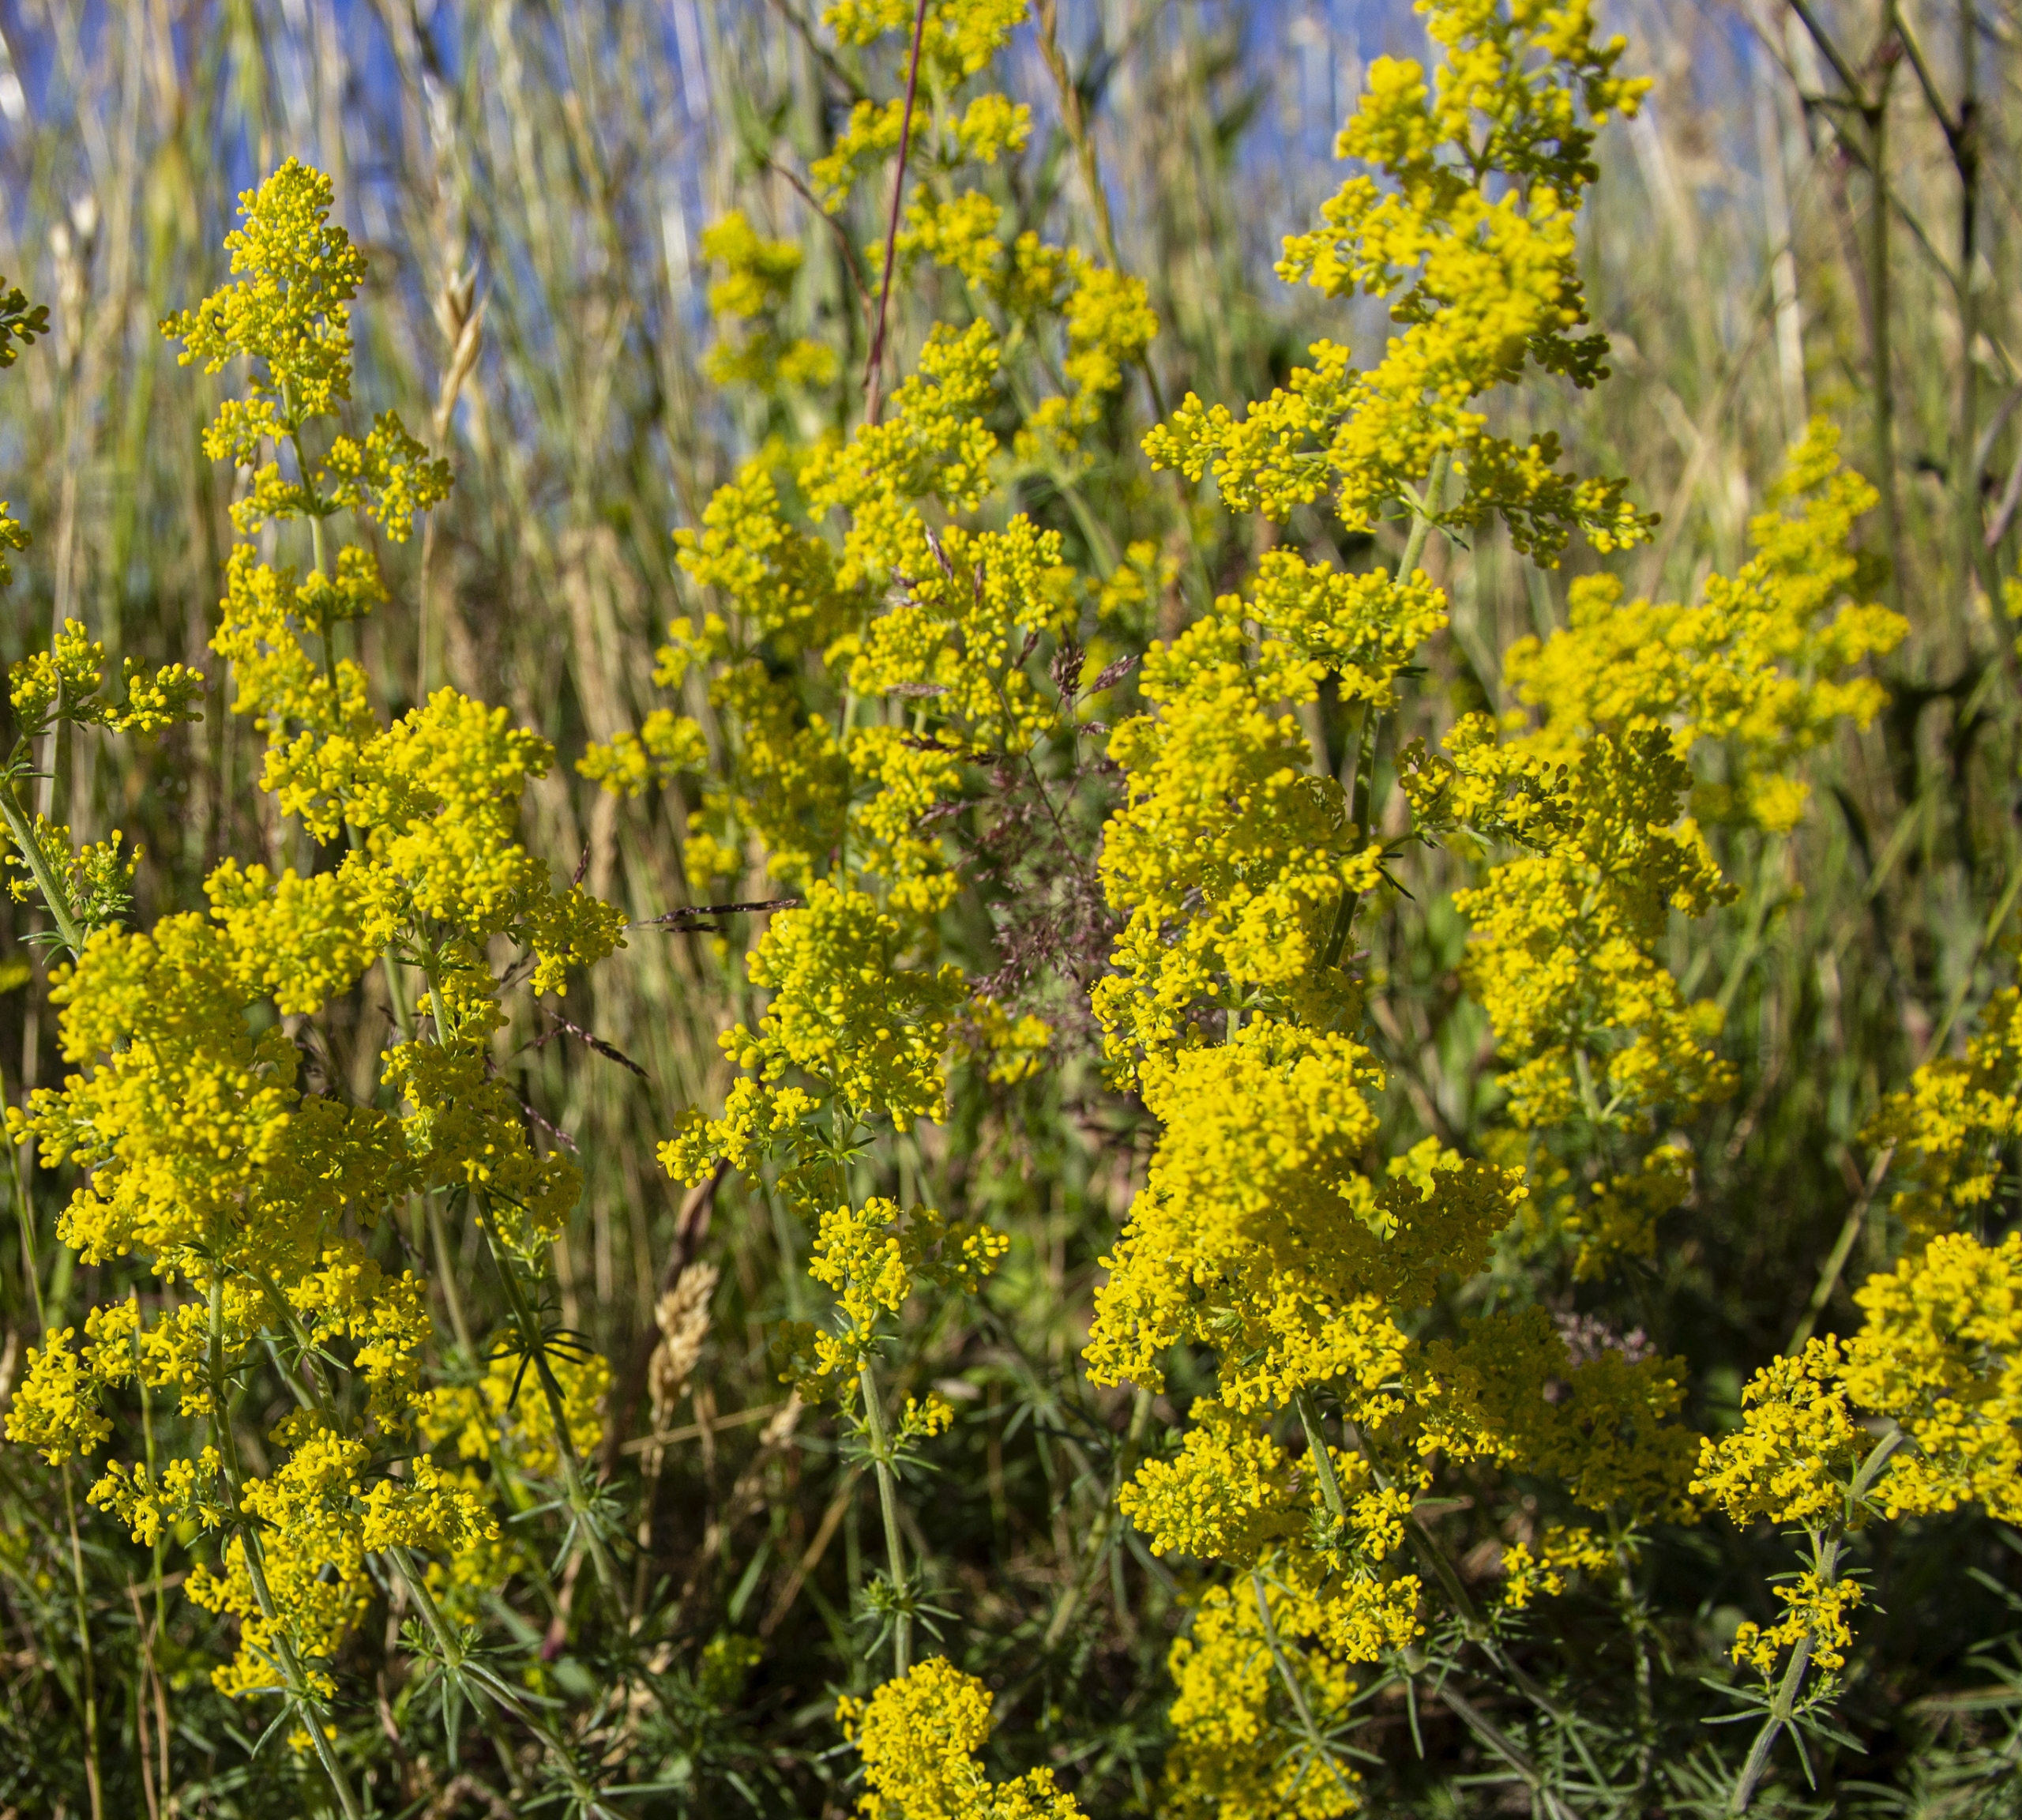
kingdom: Plantae
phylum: Tracheophyta
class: Magnoliopsida
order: Gentianales
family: Rubiaceae
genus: Galium
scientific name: Galium verum
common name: Gul snerre
